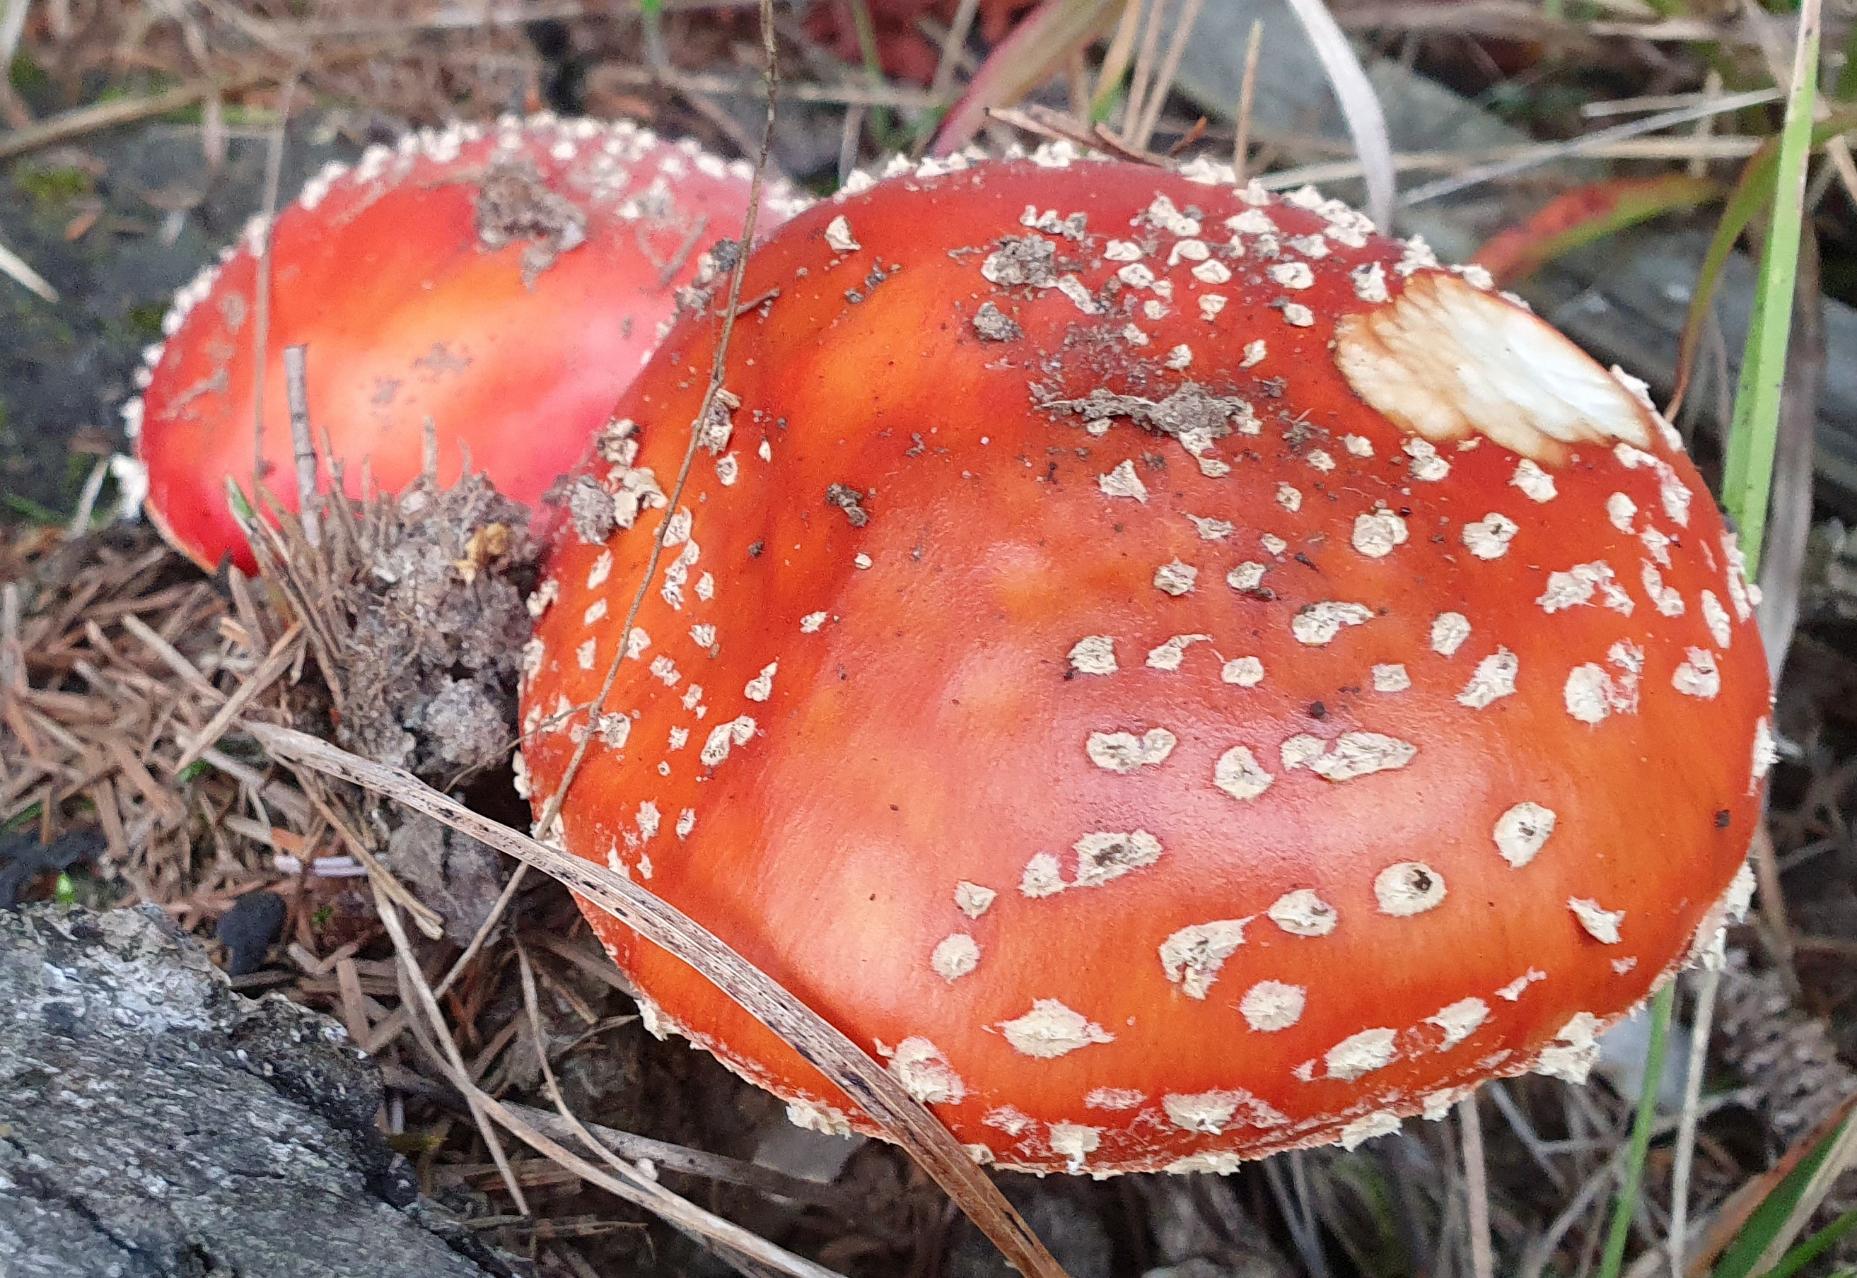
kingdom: Fungi
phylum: Basidiomycota
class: Agaricomycetes
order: Agaricales
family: Amanitaceae
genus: Amanita
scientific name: Amanita muscaria
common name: Rød fluesvamp
